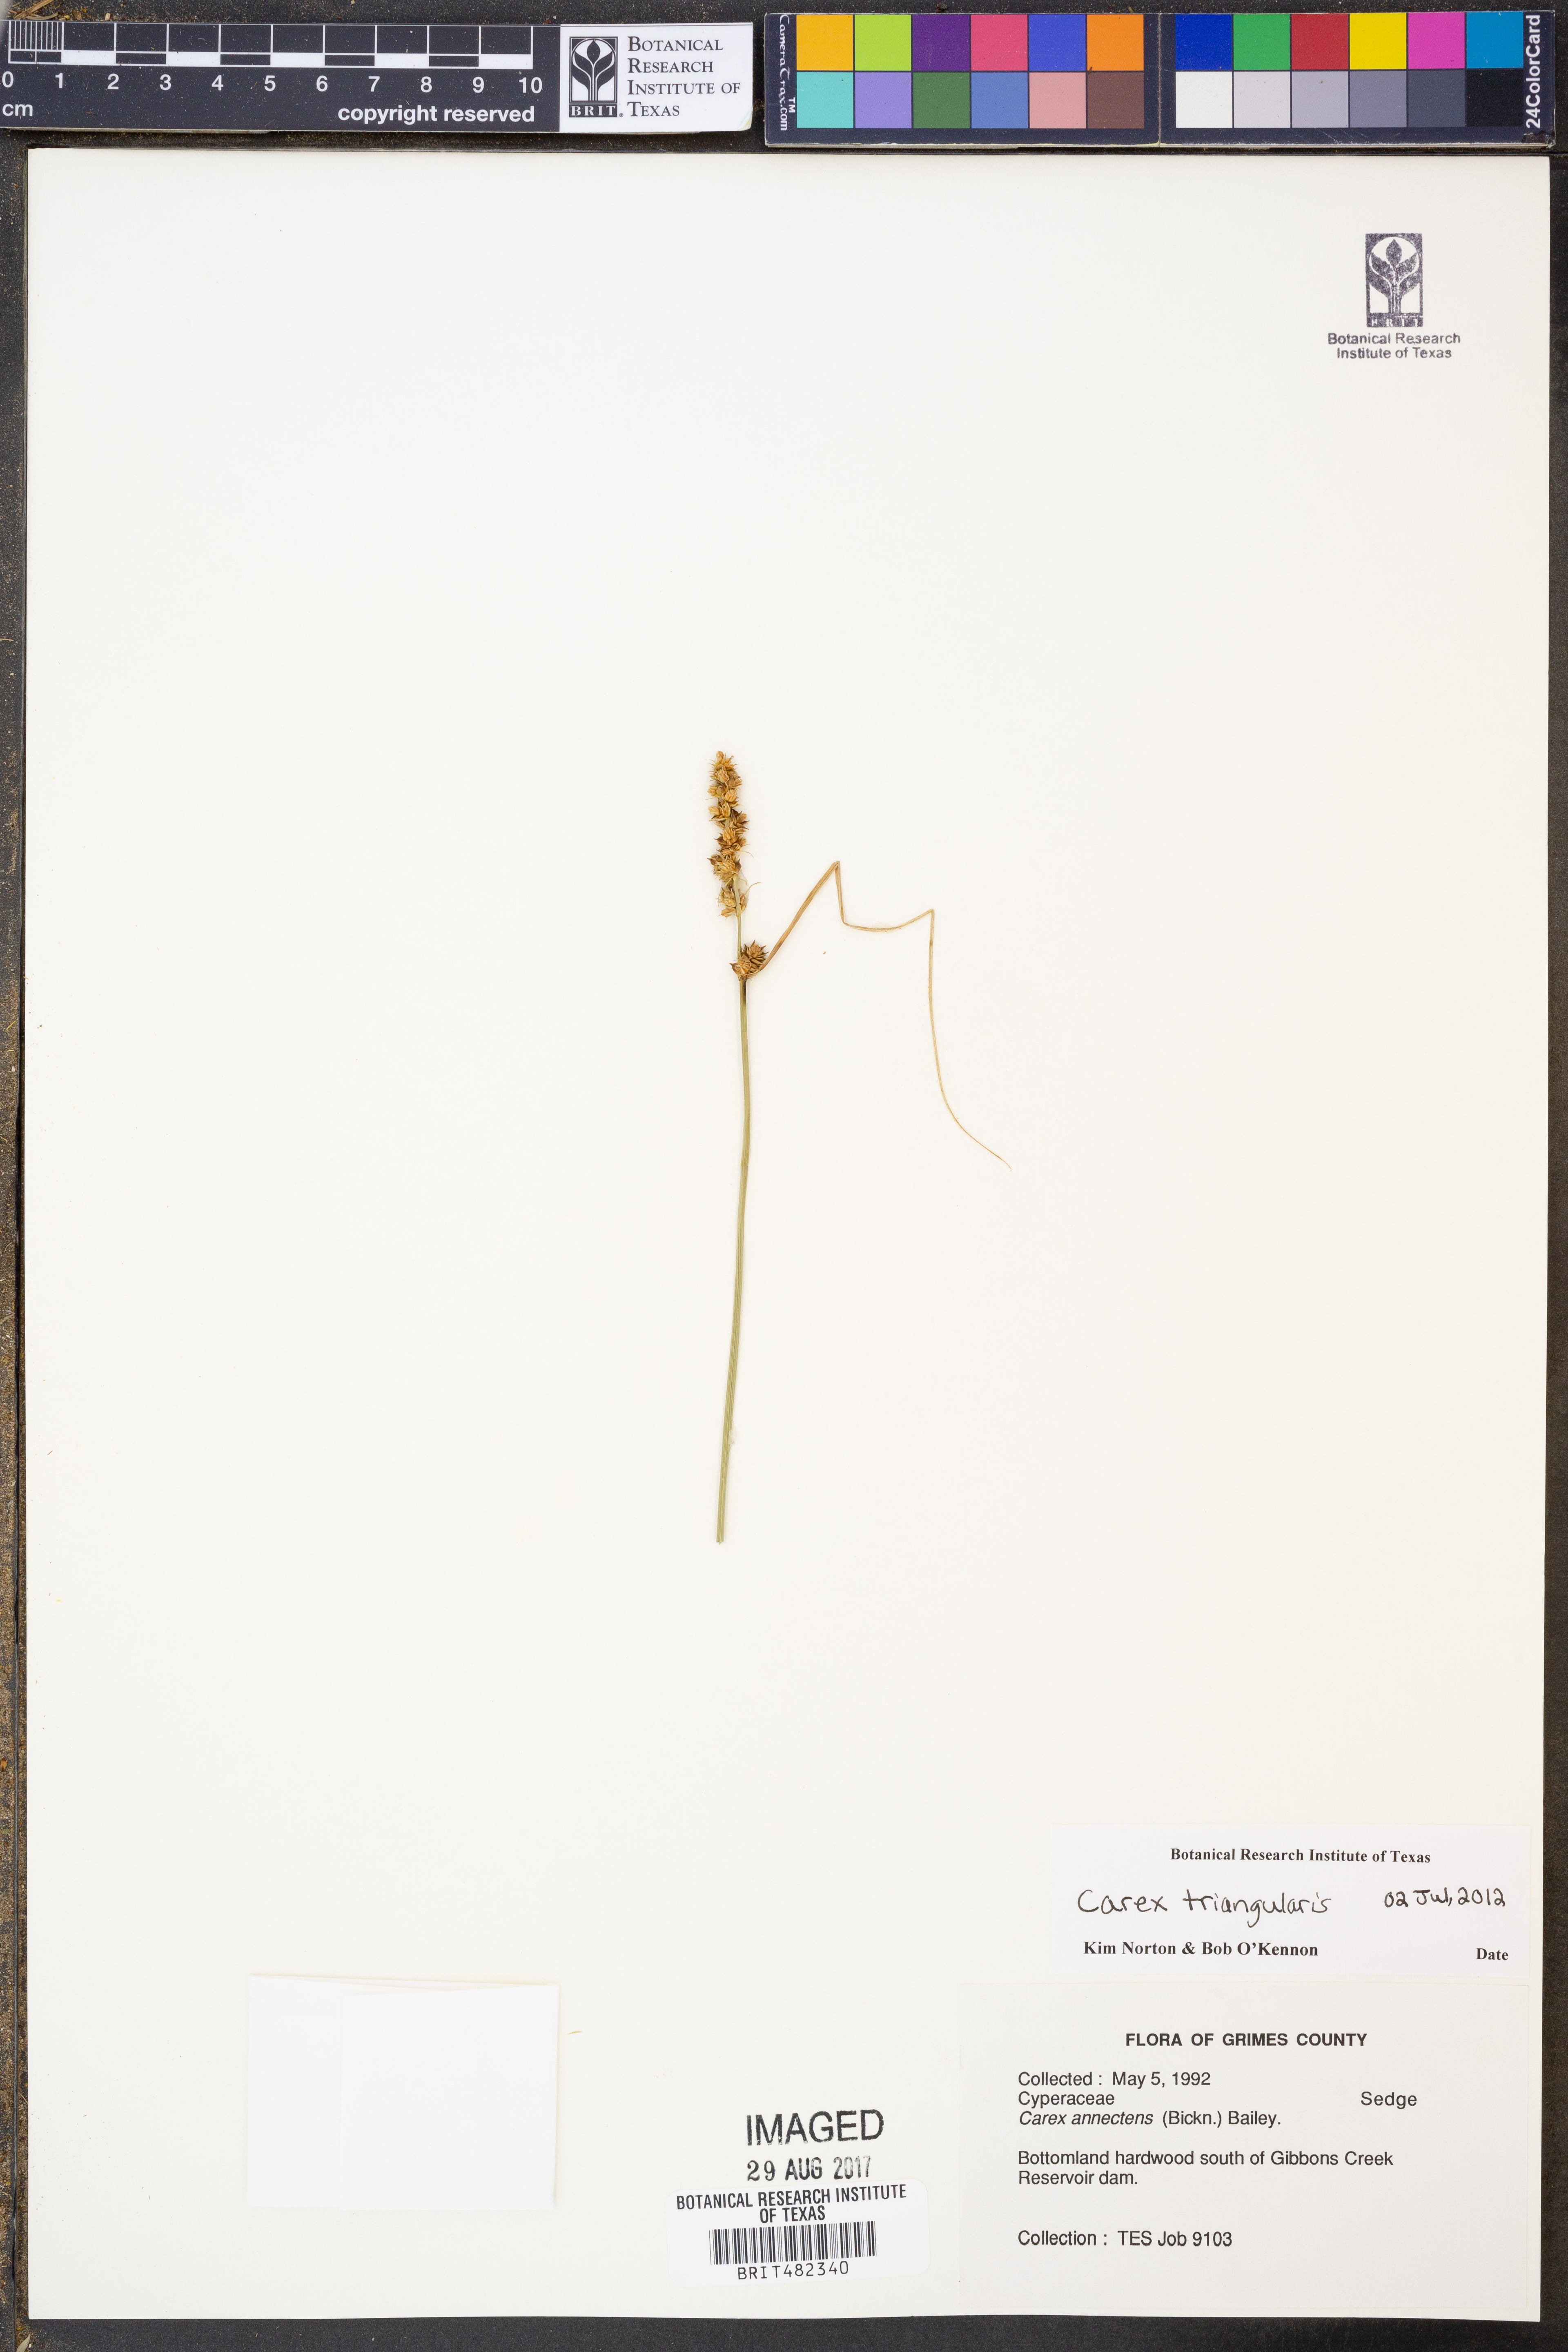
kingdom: Plantae
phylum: Tracheophyta
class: Liliopsida
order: Poales
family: Cyperaceae
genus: Carex
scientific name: Carex triangularis
